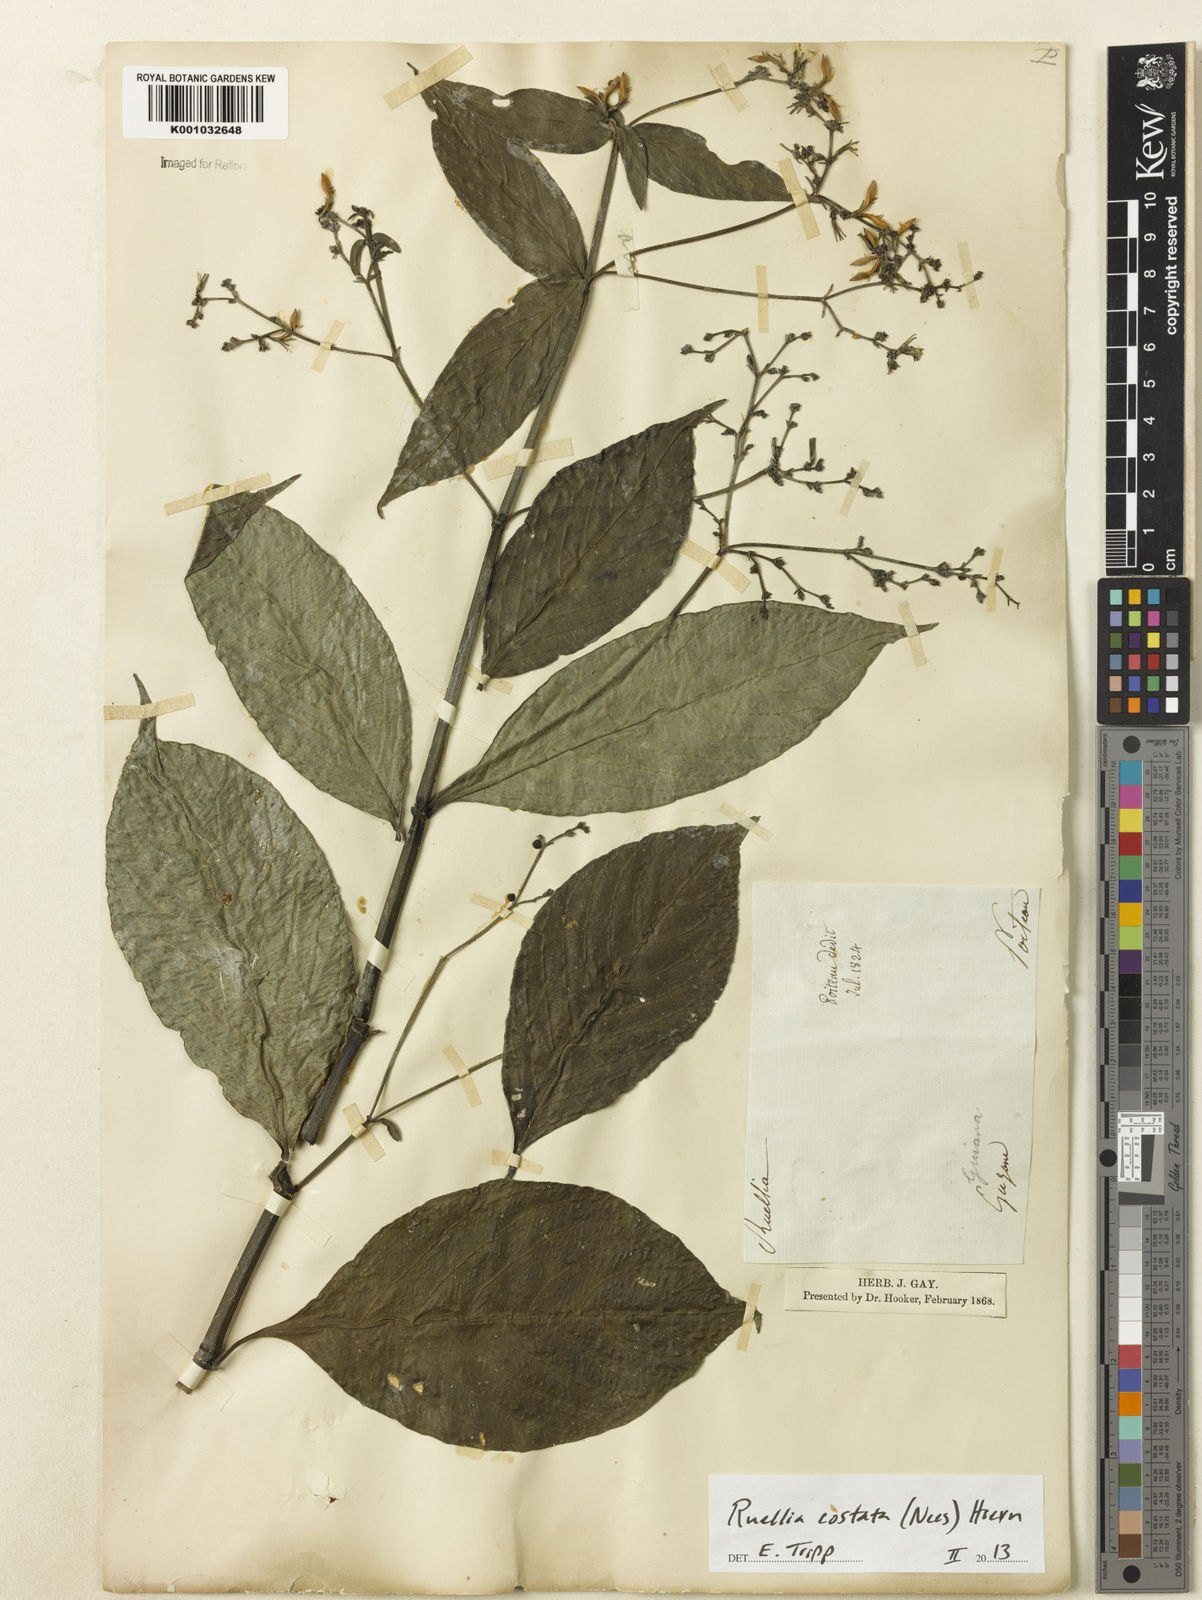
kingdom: Plantae
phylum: Tracheophyta
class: Magnoliopsida
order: Lamiales
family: Acanthaceae
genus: Ruellia
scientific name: Ruellia costata
